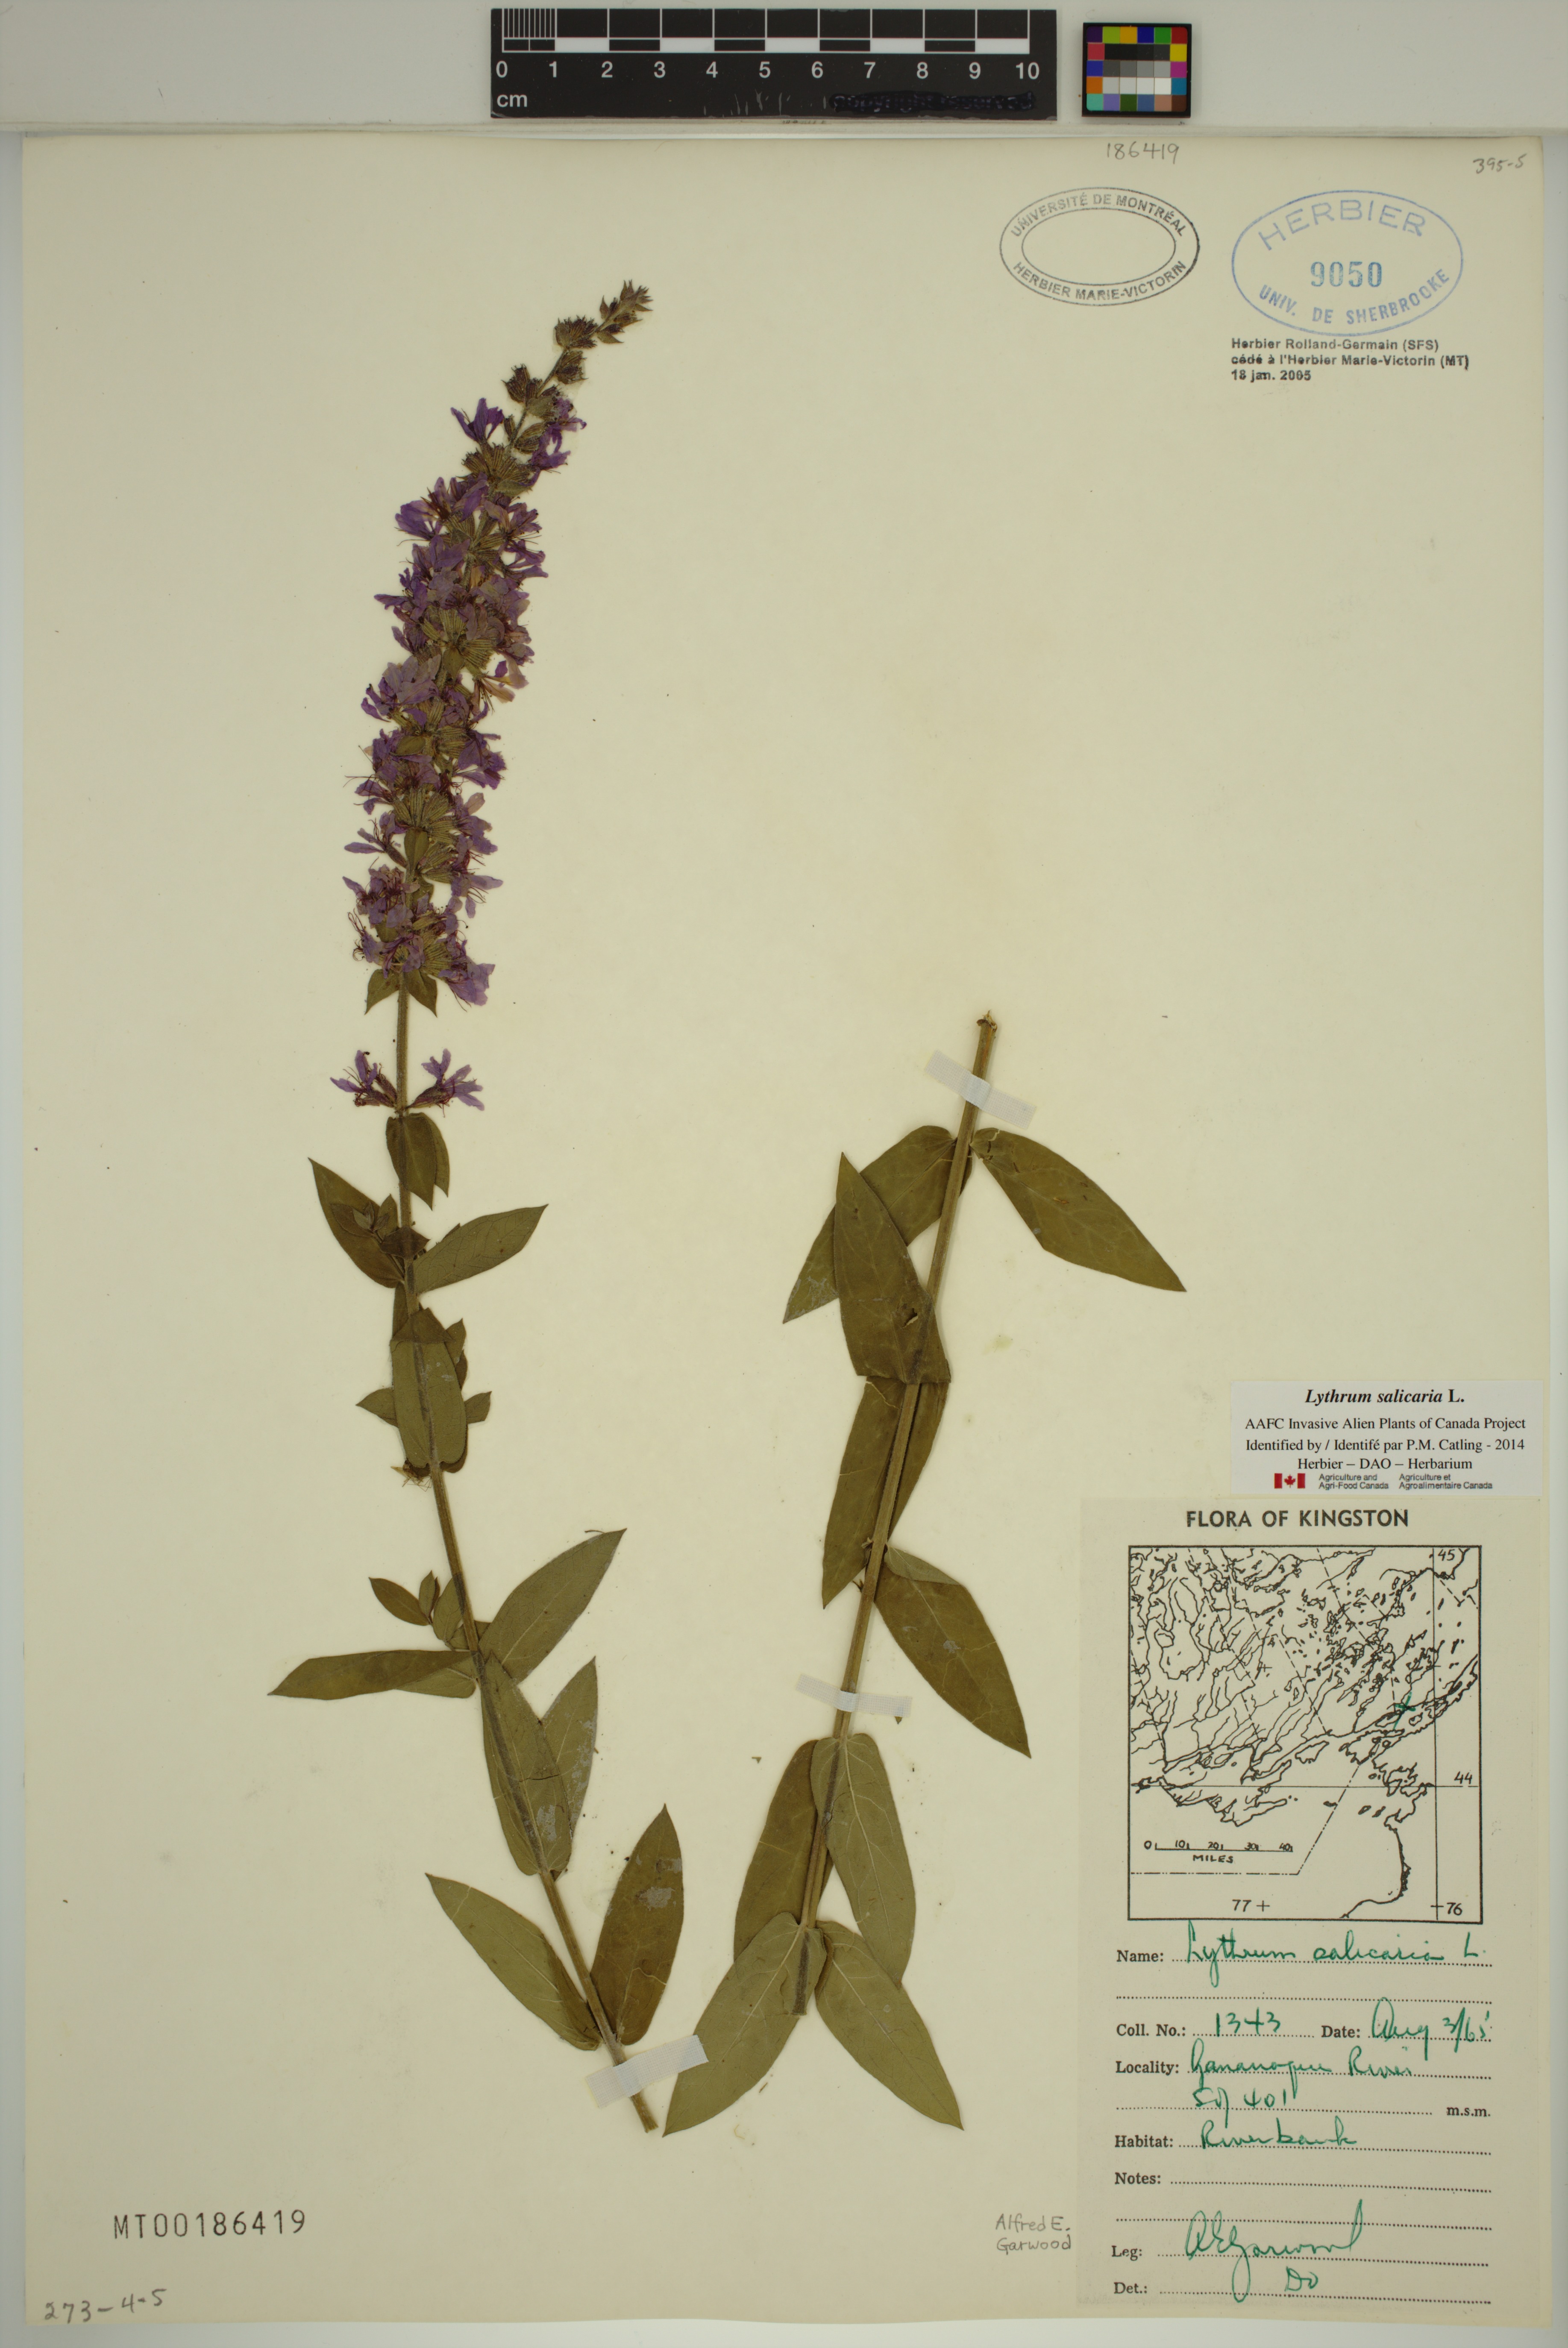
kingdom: Plantae
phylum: Tracheophyta
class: Magnoliopsida
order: Myrtales
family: Lythraceae
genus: Lythrum
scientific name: Lythrum salicaria
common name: Purple loosestrife
